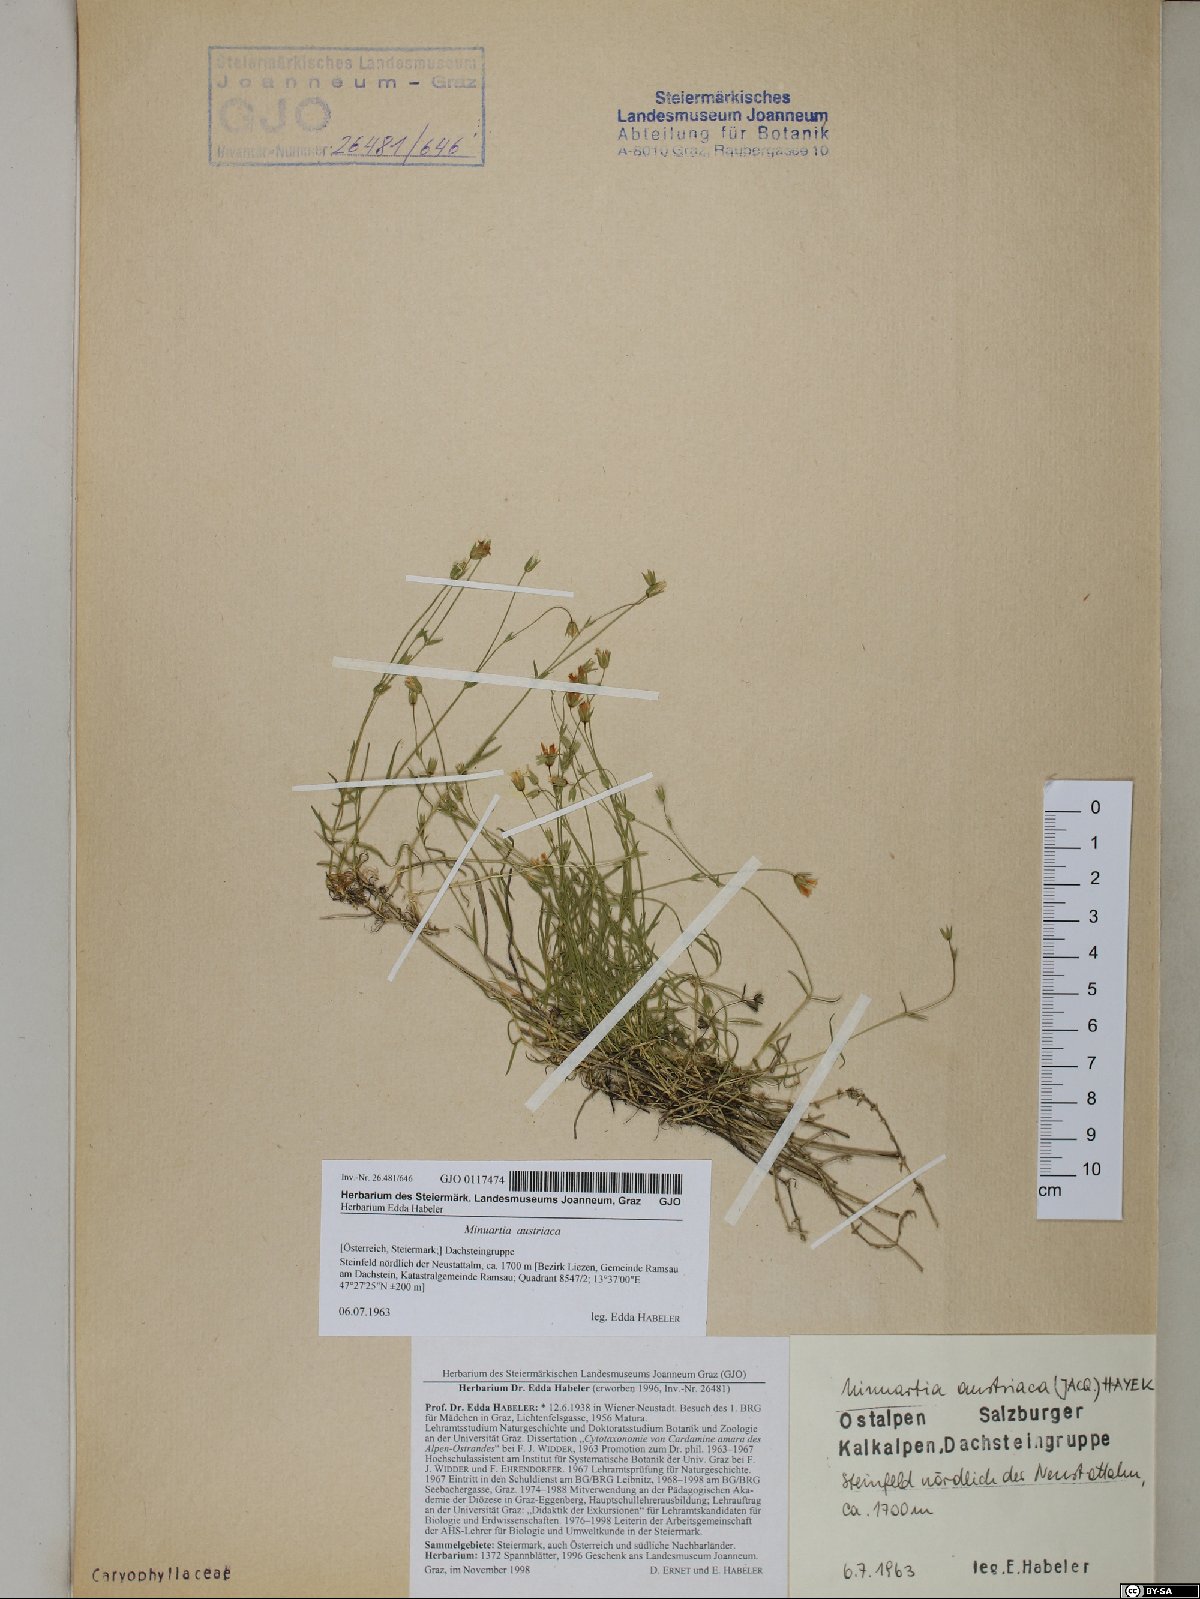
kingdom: Plantae
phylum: Tracheophyta
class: Magnoliopsida
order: Caryophyllales
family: Caryophyllaceae
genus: Sabulina
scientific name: Sabulina austriaca
